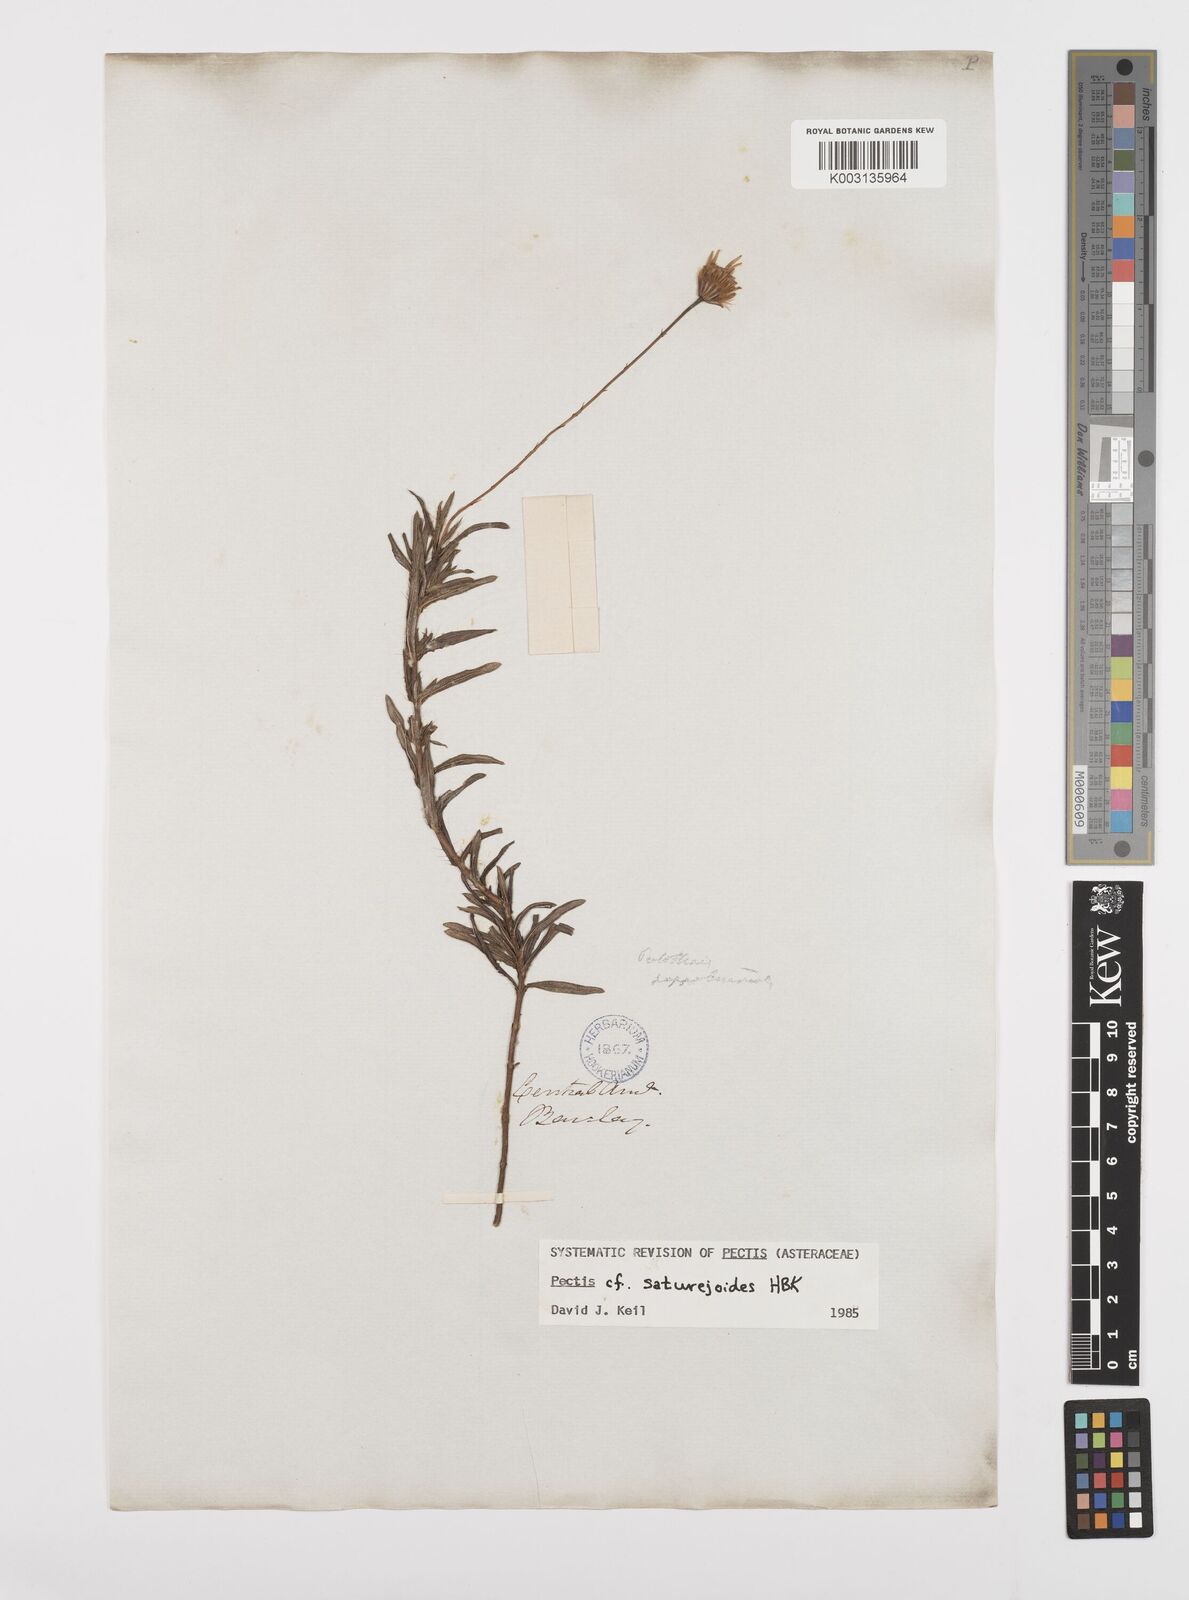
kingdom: Plantae
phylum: Tracheophyta
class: Magnoliopsida
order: Asterales
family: Asteraceae
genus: Pectis
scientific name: Pectis saturejoides
